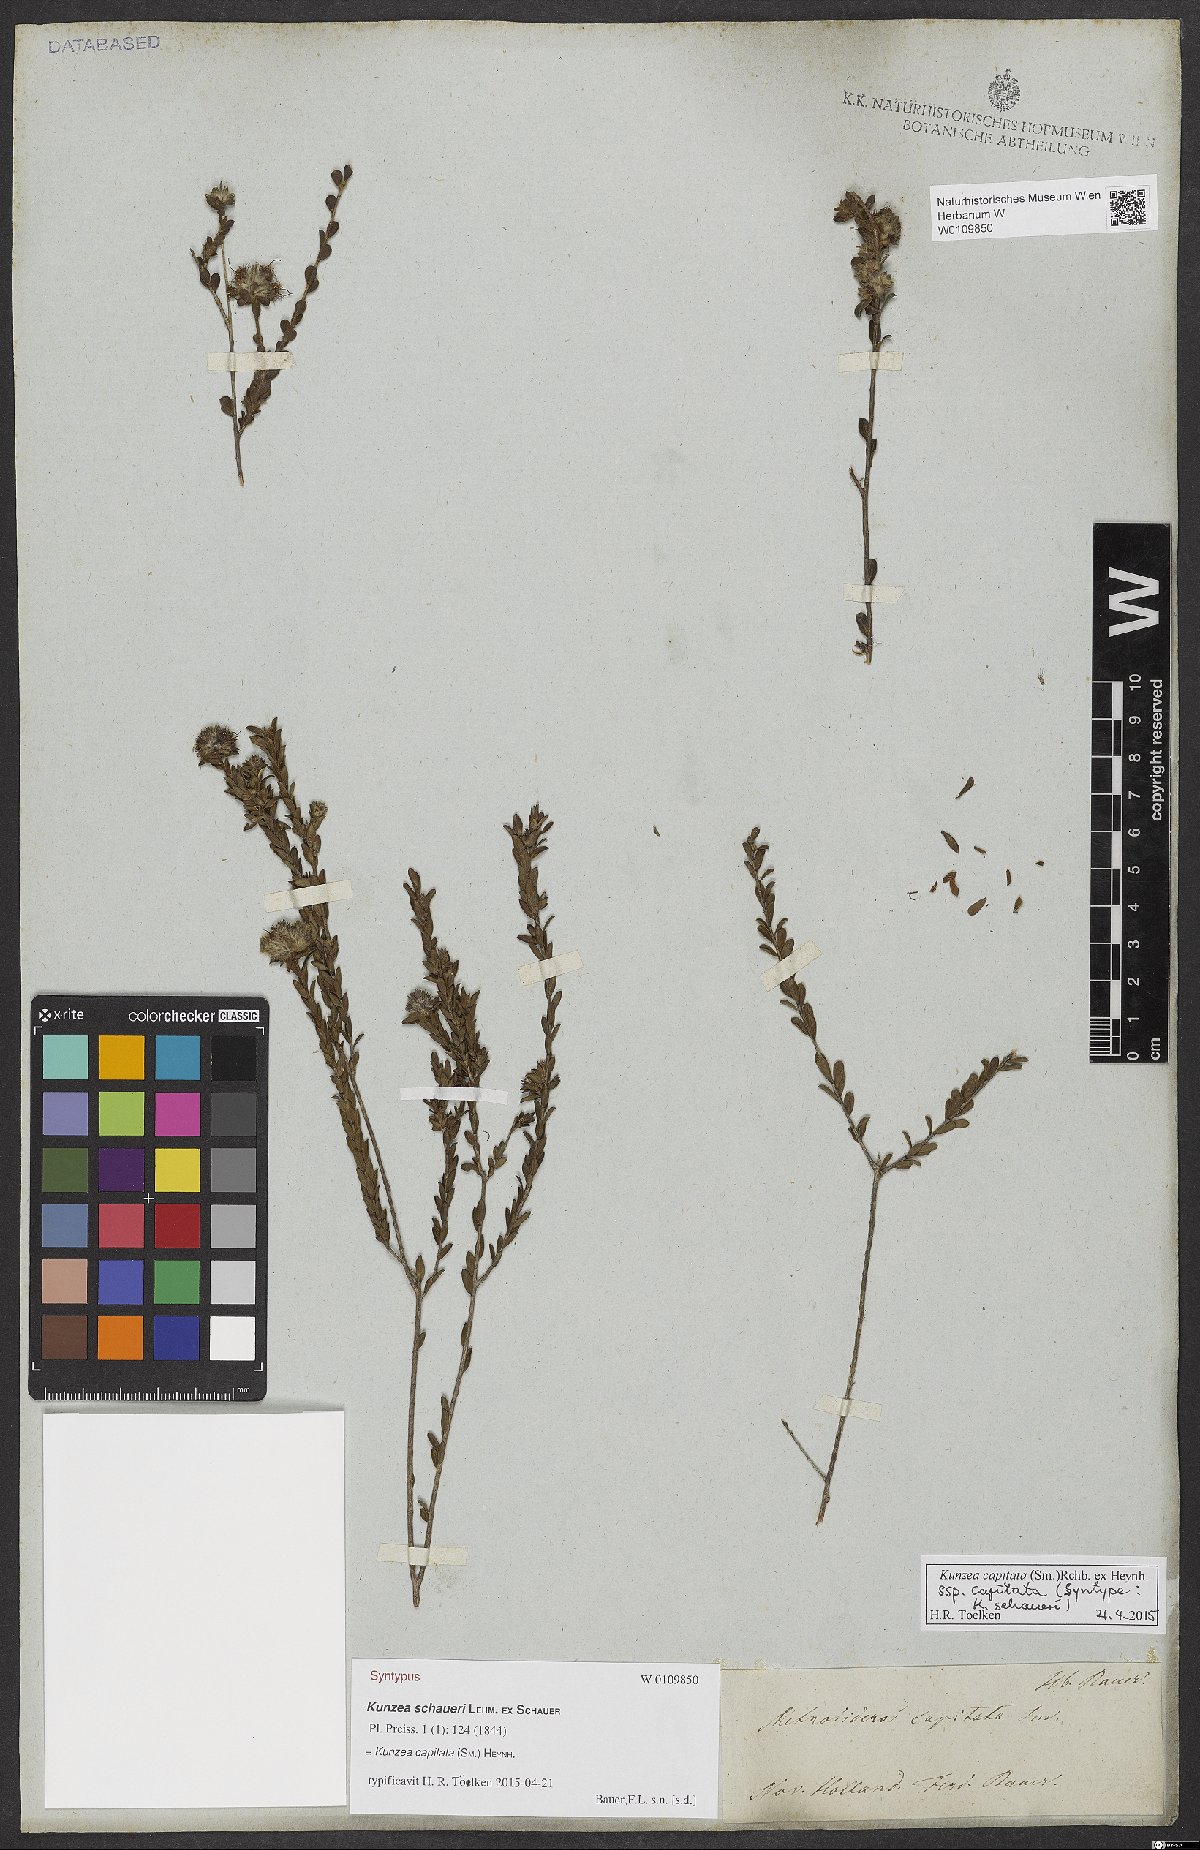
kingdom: Plantae
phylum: Tracheophyta
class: Magnoliopsida
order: Myrtales
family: Myrtaceae
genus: Kunzea
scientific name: Kunzea capitata
